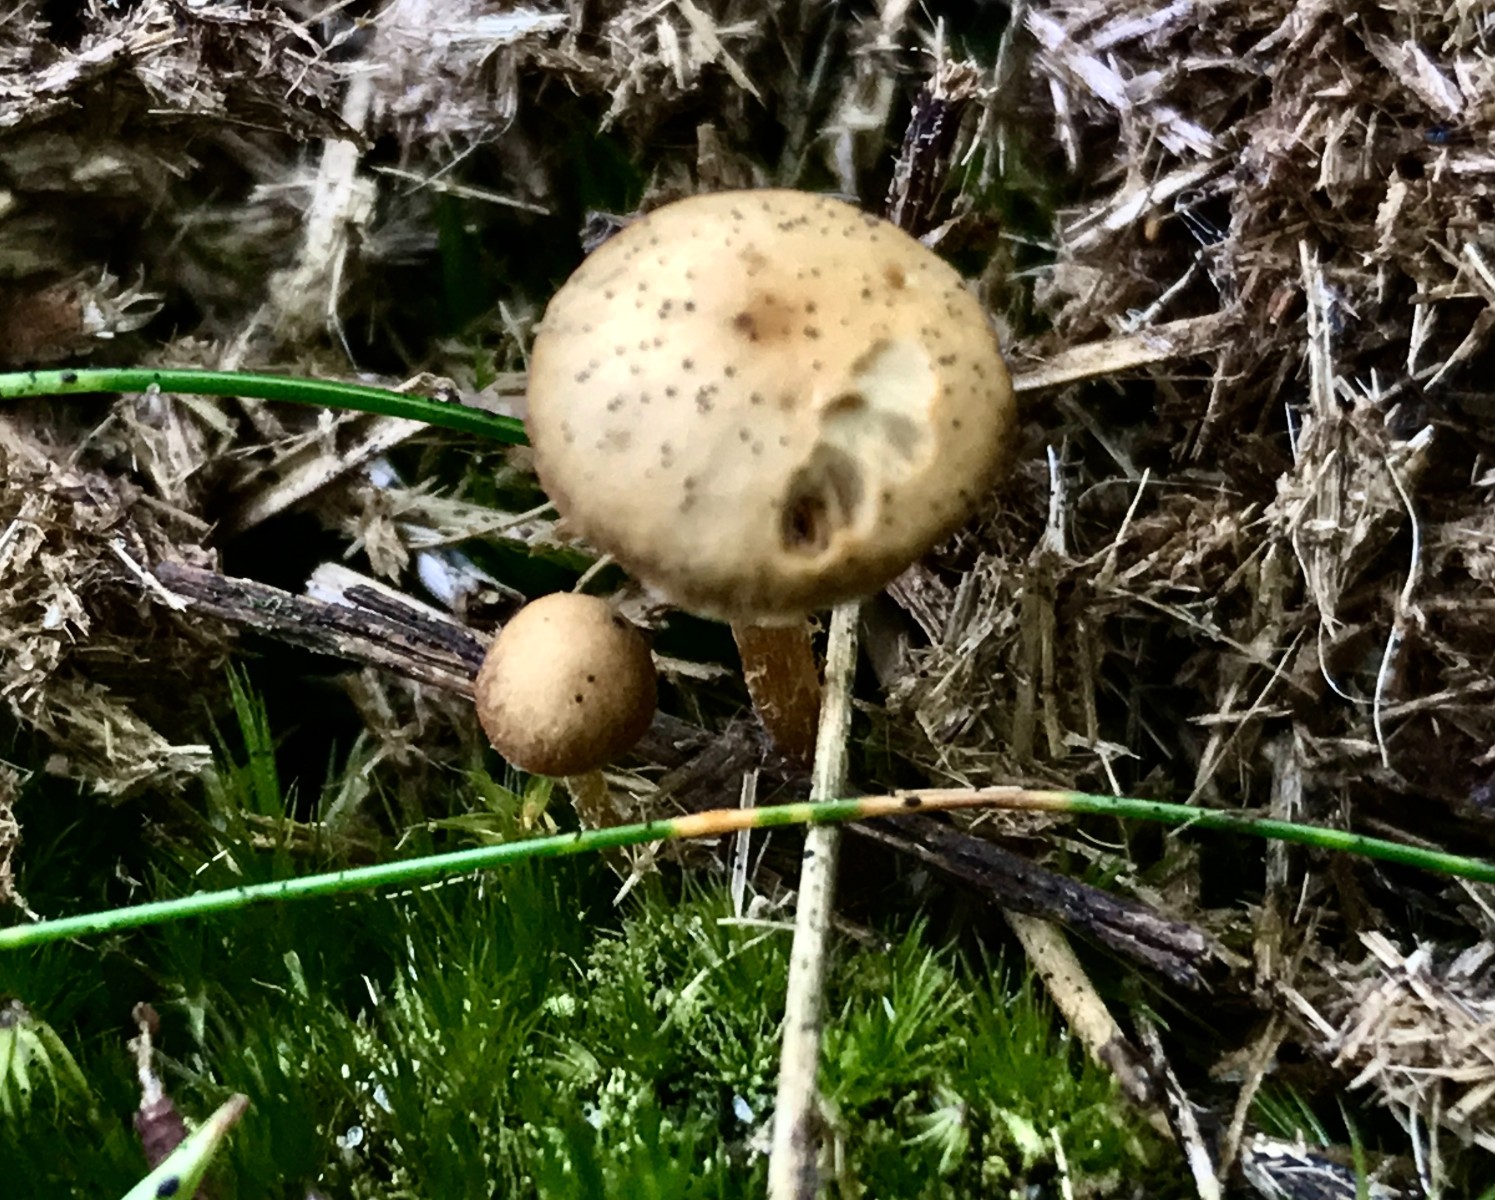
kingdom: Fungi
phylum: Basidiomycota
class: Agaricomycetes
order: Agaricales
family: Omphalotaceae
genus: Collybiopsis
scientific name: Collybiopsis peronata
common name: bestøvlet fladhat
